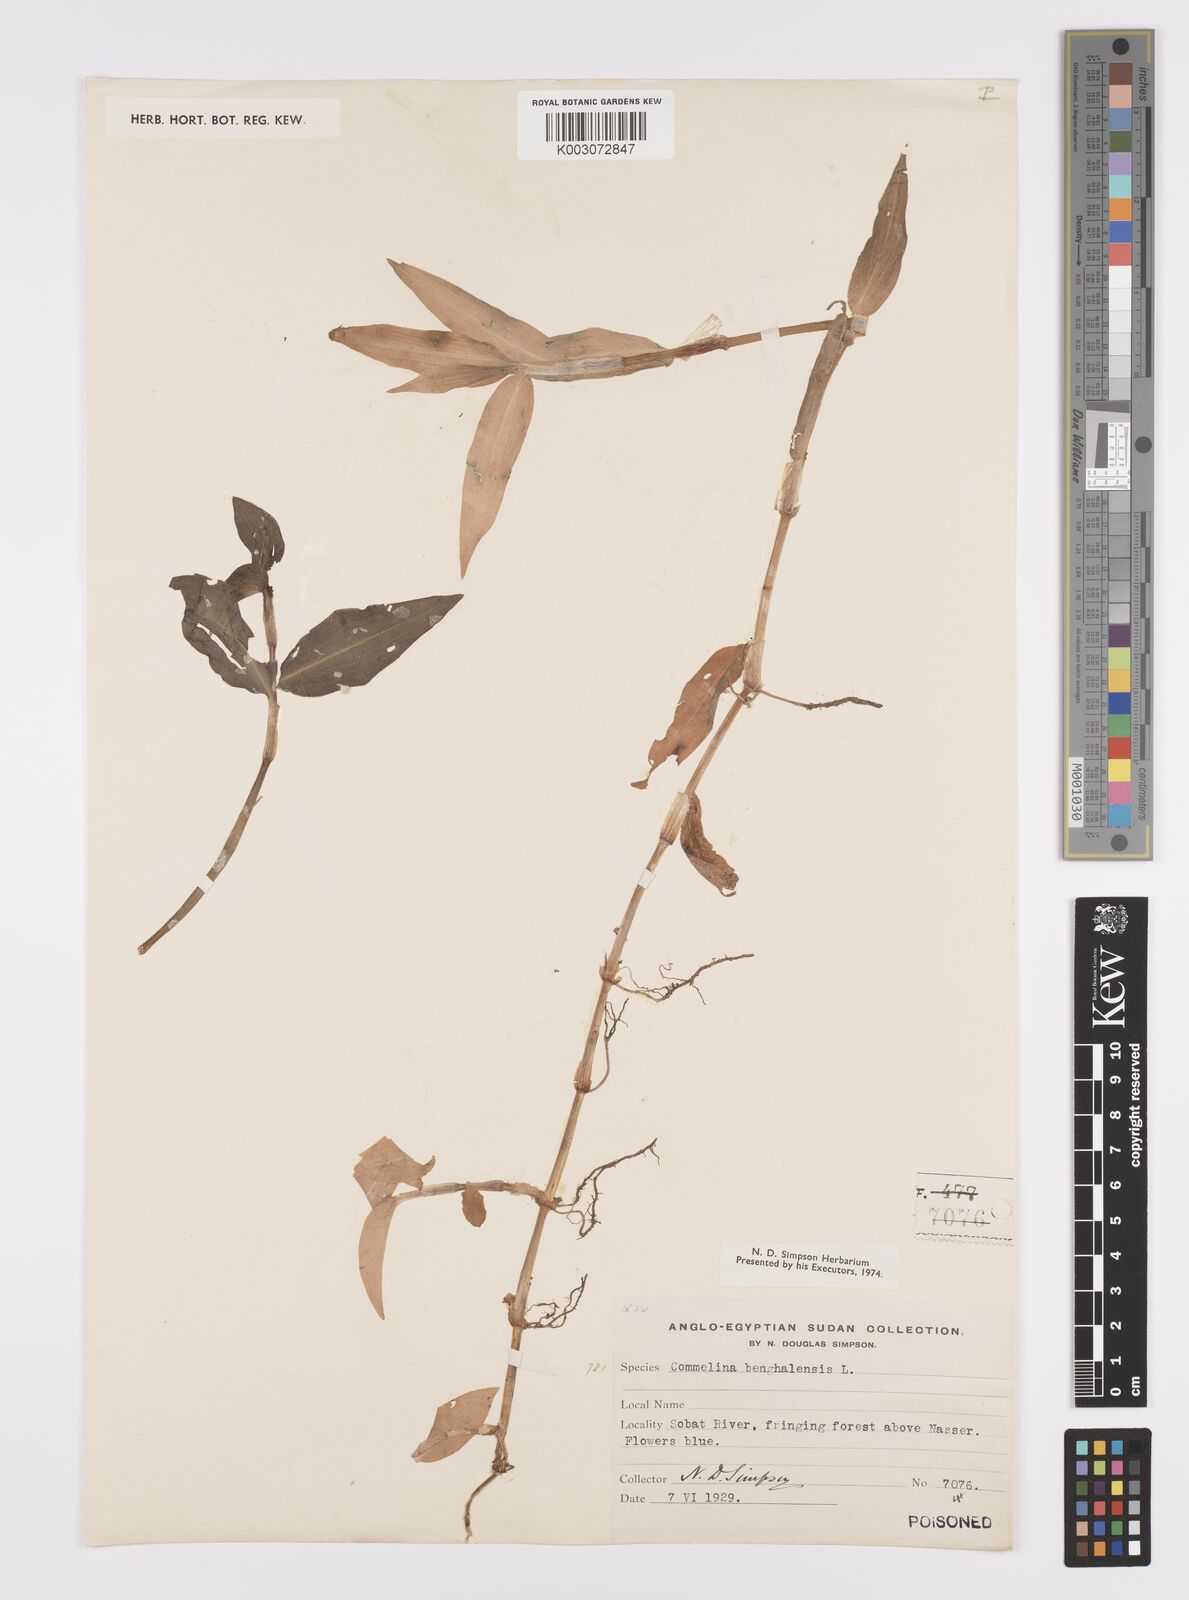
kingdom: Plantae
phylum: Tracheophyta
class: Liliopsida
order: Commelinales
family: Commelinaceae
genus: Commelina
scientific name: Commelina benghalensis
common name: Jio
